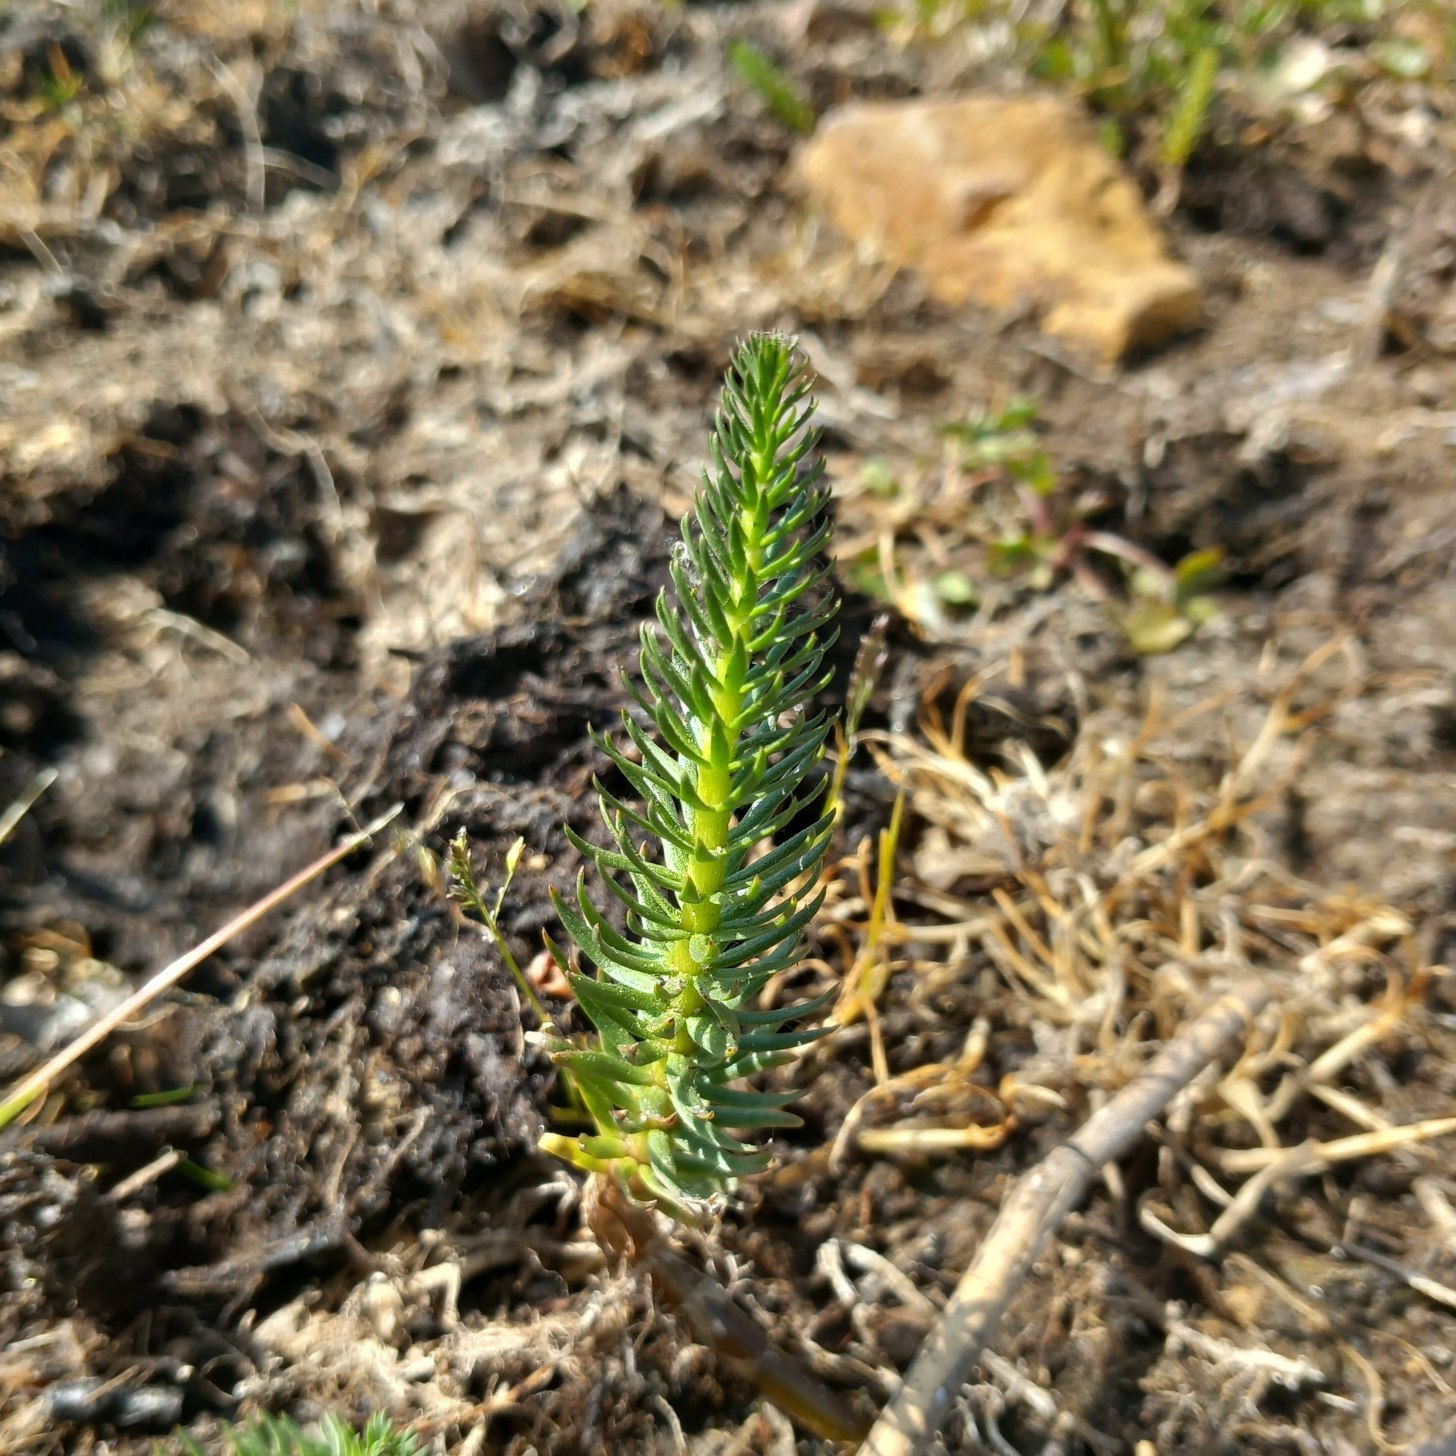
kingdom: Plantae
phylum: Tracheophyta
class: Magnoliopsida
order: Lamiales
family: Plantaginaceae
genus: Hippuris
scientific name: Hippuris vulgaris
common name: Vandspir
